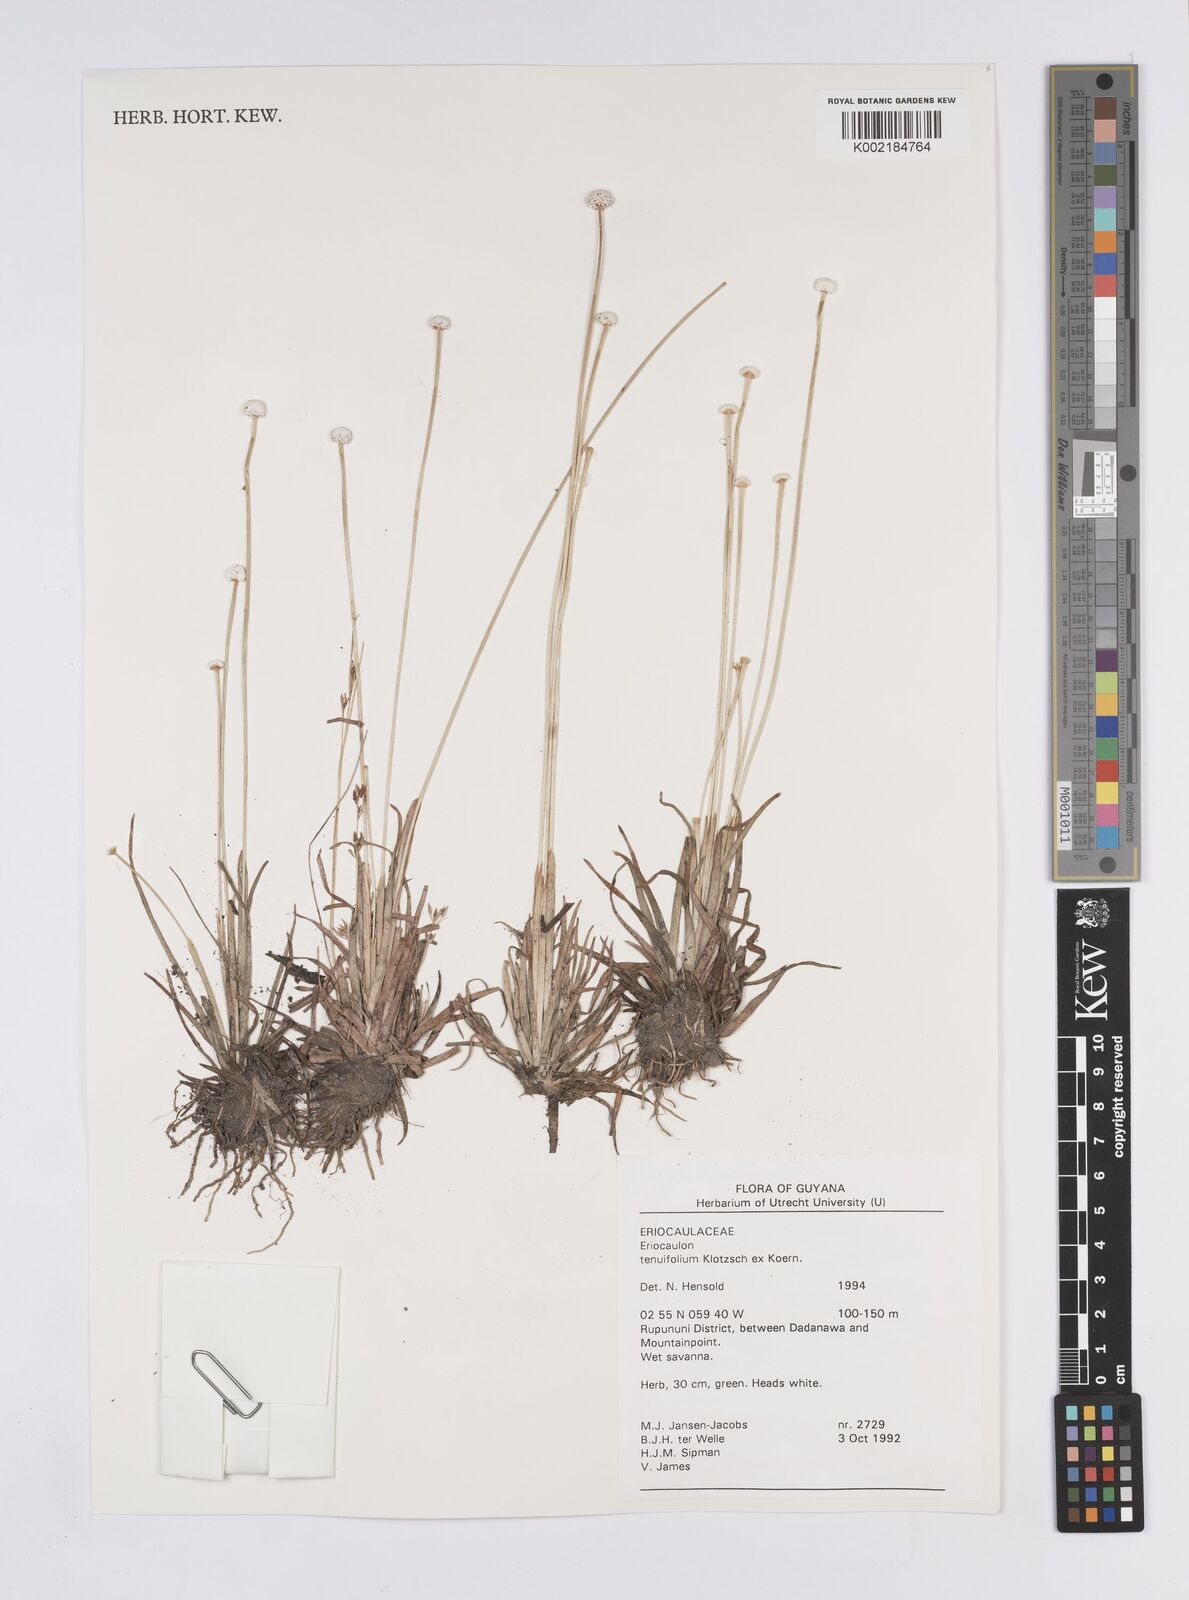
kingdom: Plantae
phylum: Tracheophyta
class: Liliopsida
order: Poales
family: Eriocaulaceae
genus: Eriocaulon
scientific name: Eriocaulon tenuifolium
